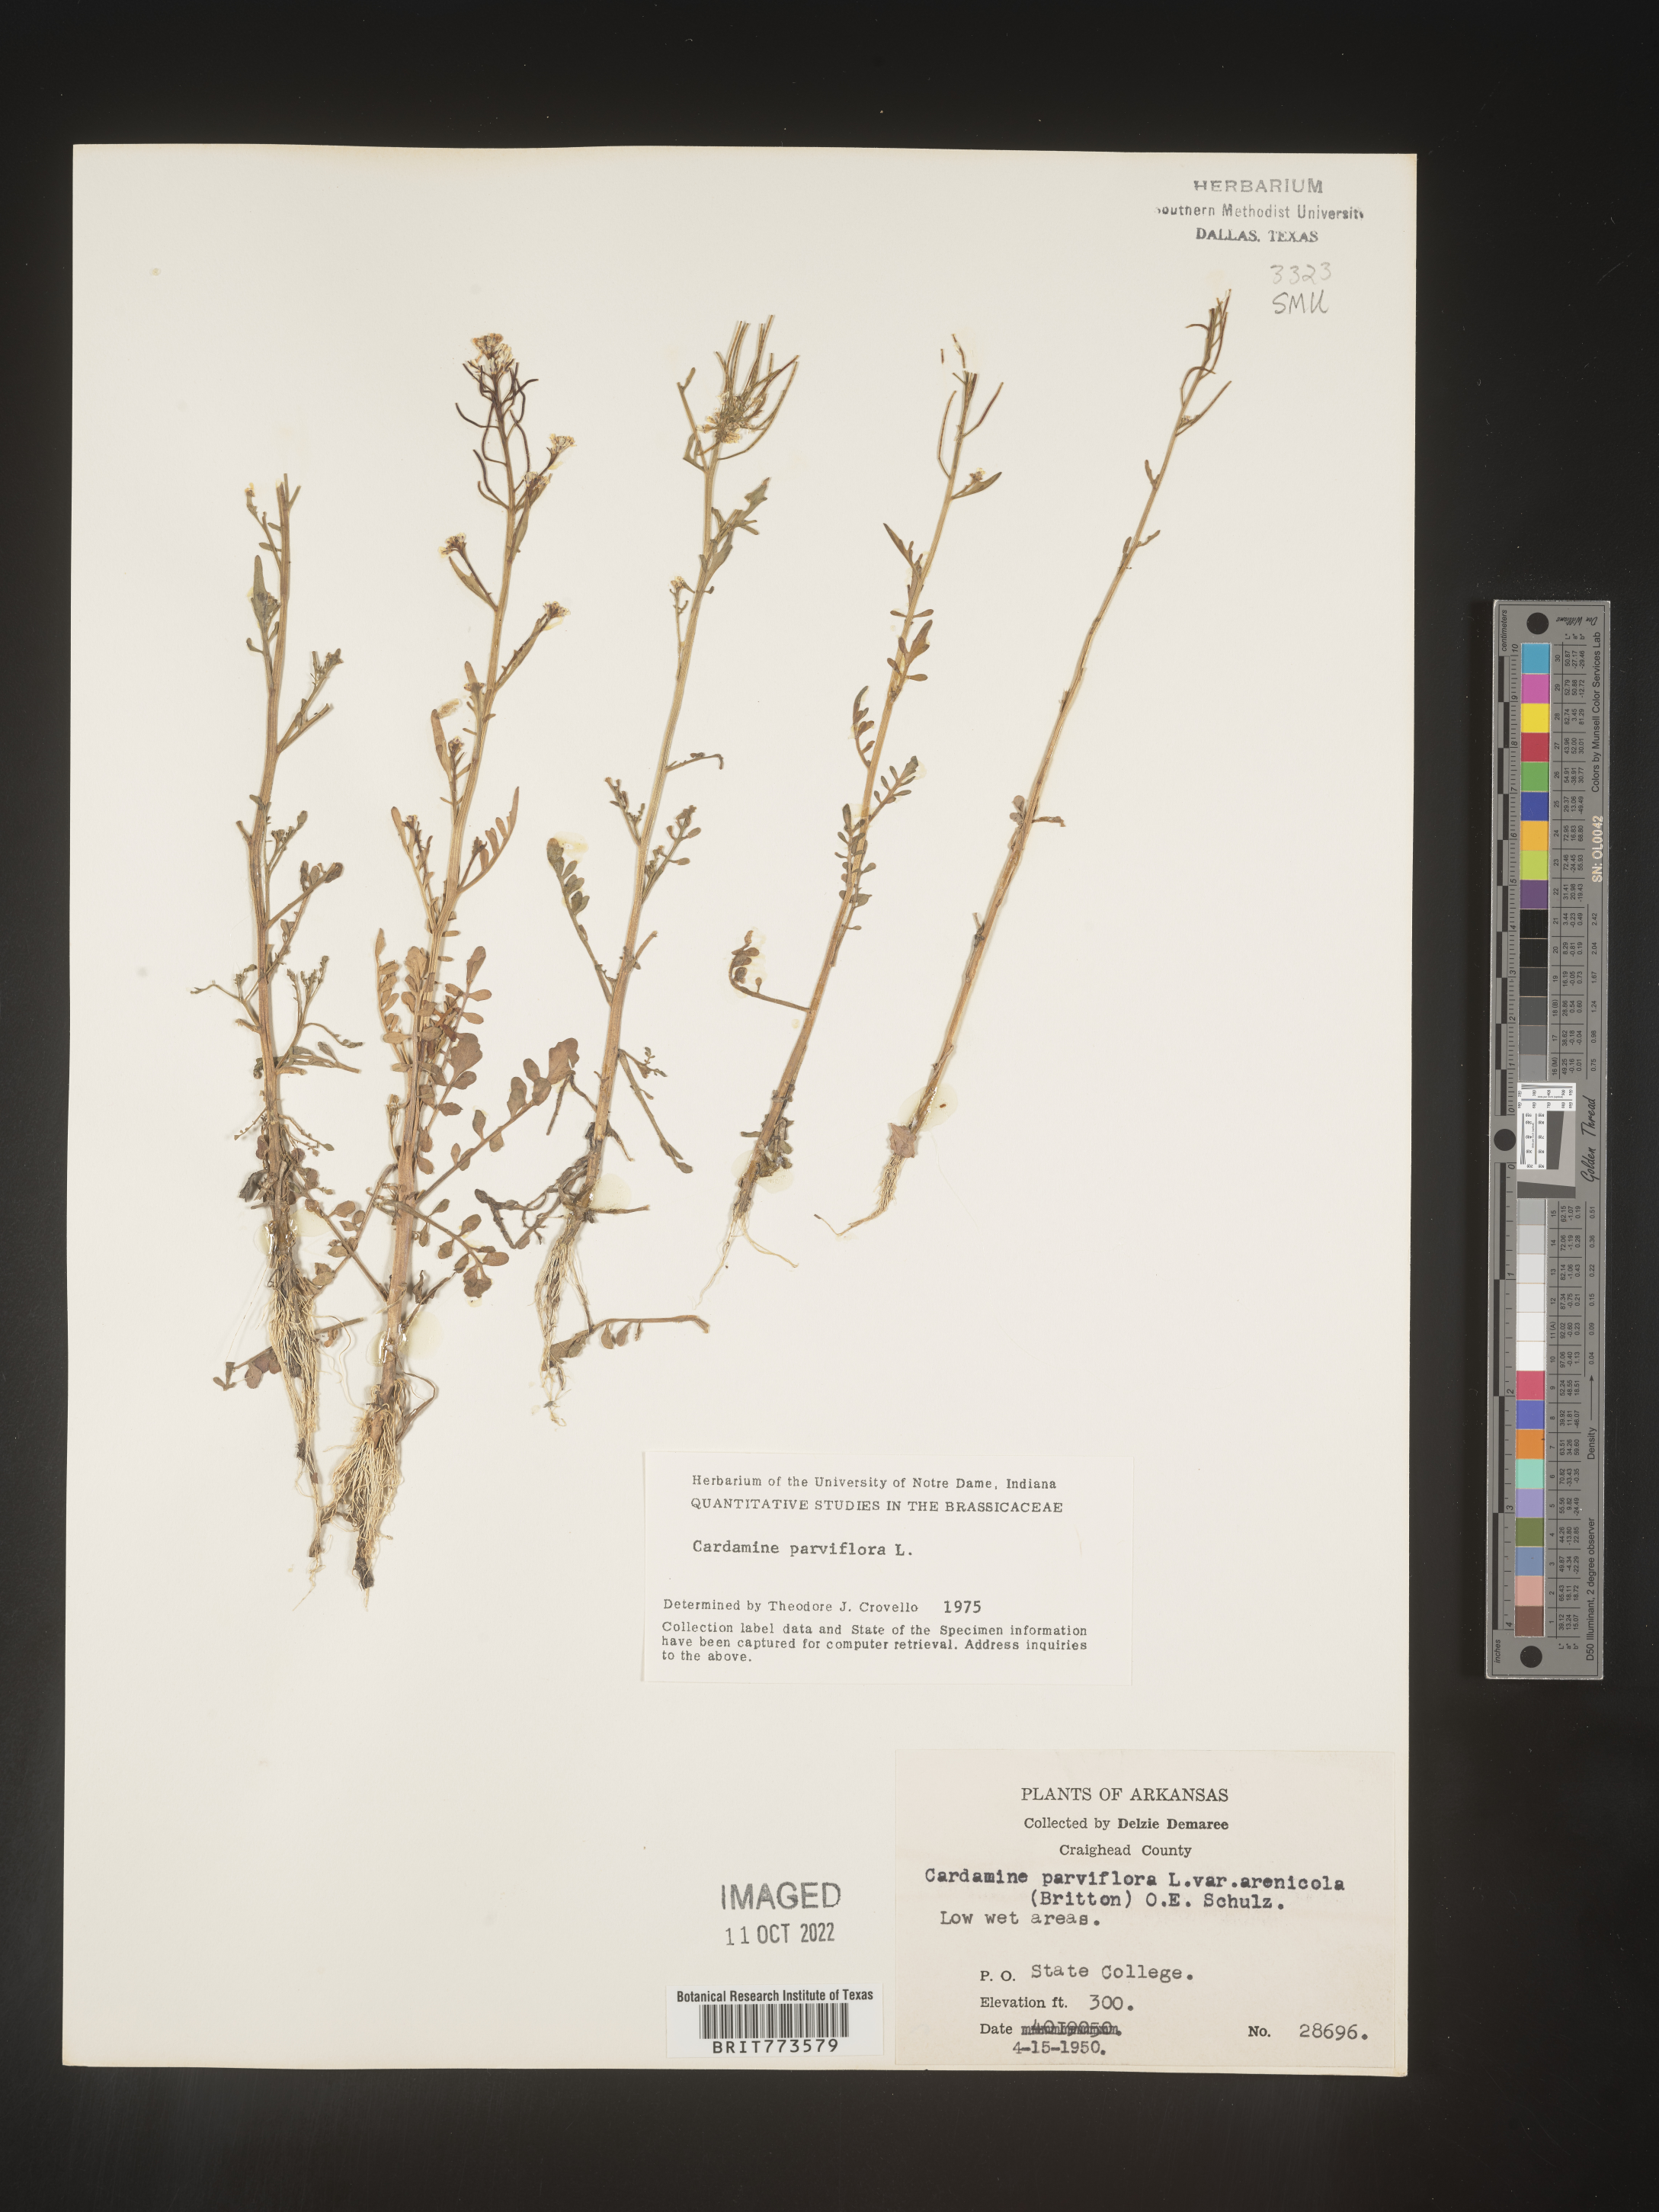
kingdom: Plantae
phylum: Tracheophyta
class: Magnoliopsida
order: Brassicales
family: Brassicaceae
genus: Cardamine
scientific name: Cardamine parviflora
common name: Sand bittercress
